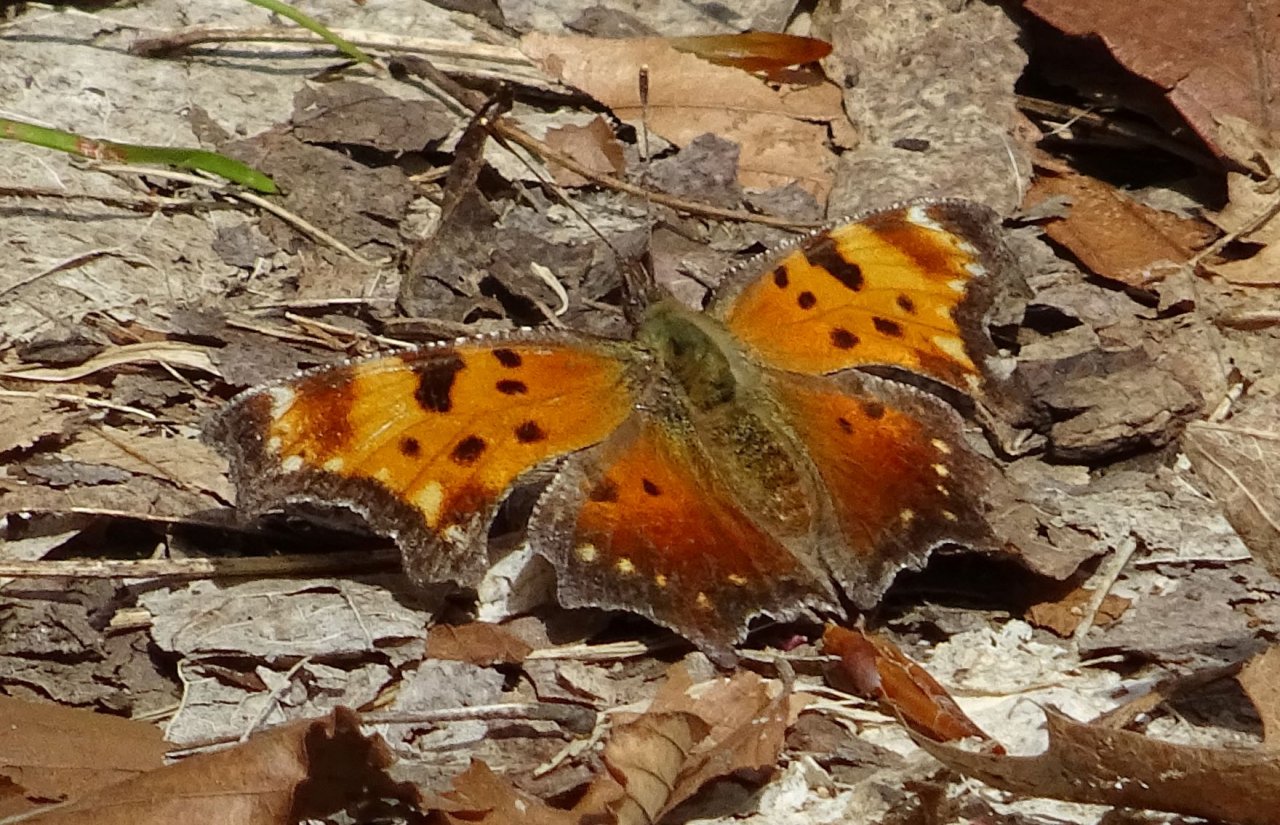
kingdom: Animalia
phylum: Arthropoda
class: Insecta
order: Lepidoptera
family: Nymphalidae
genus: Polygonia
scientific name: Polygonia progne
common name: Gray Comma
